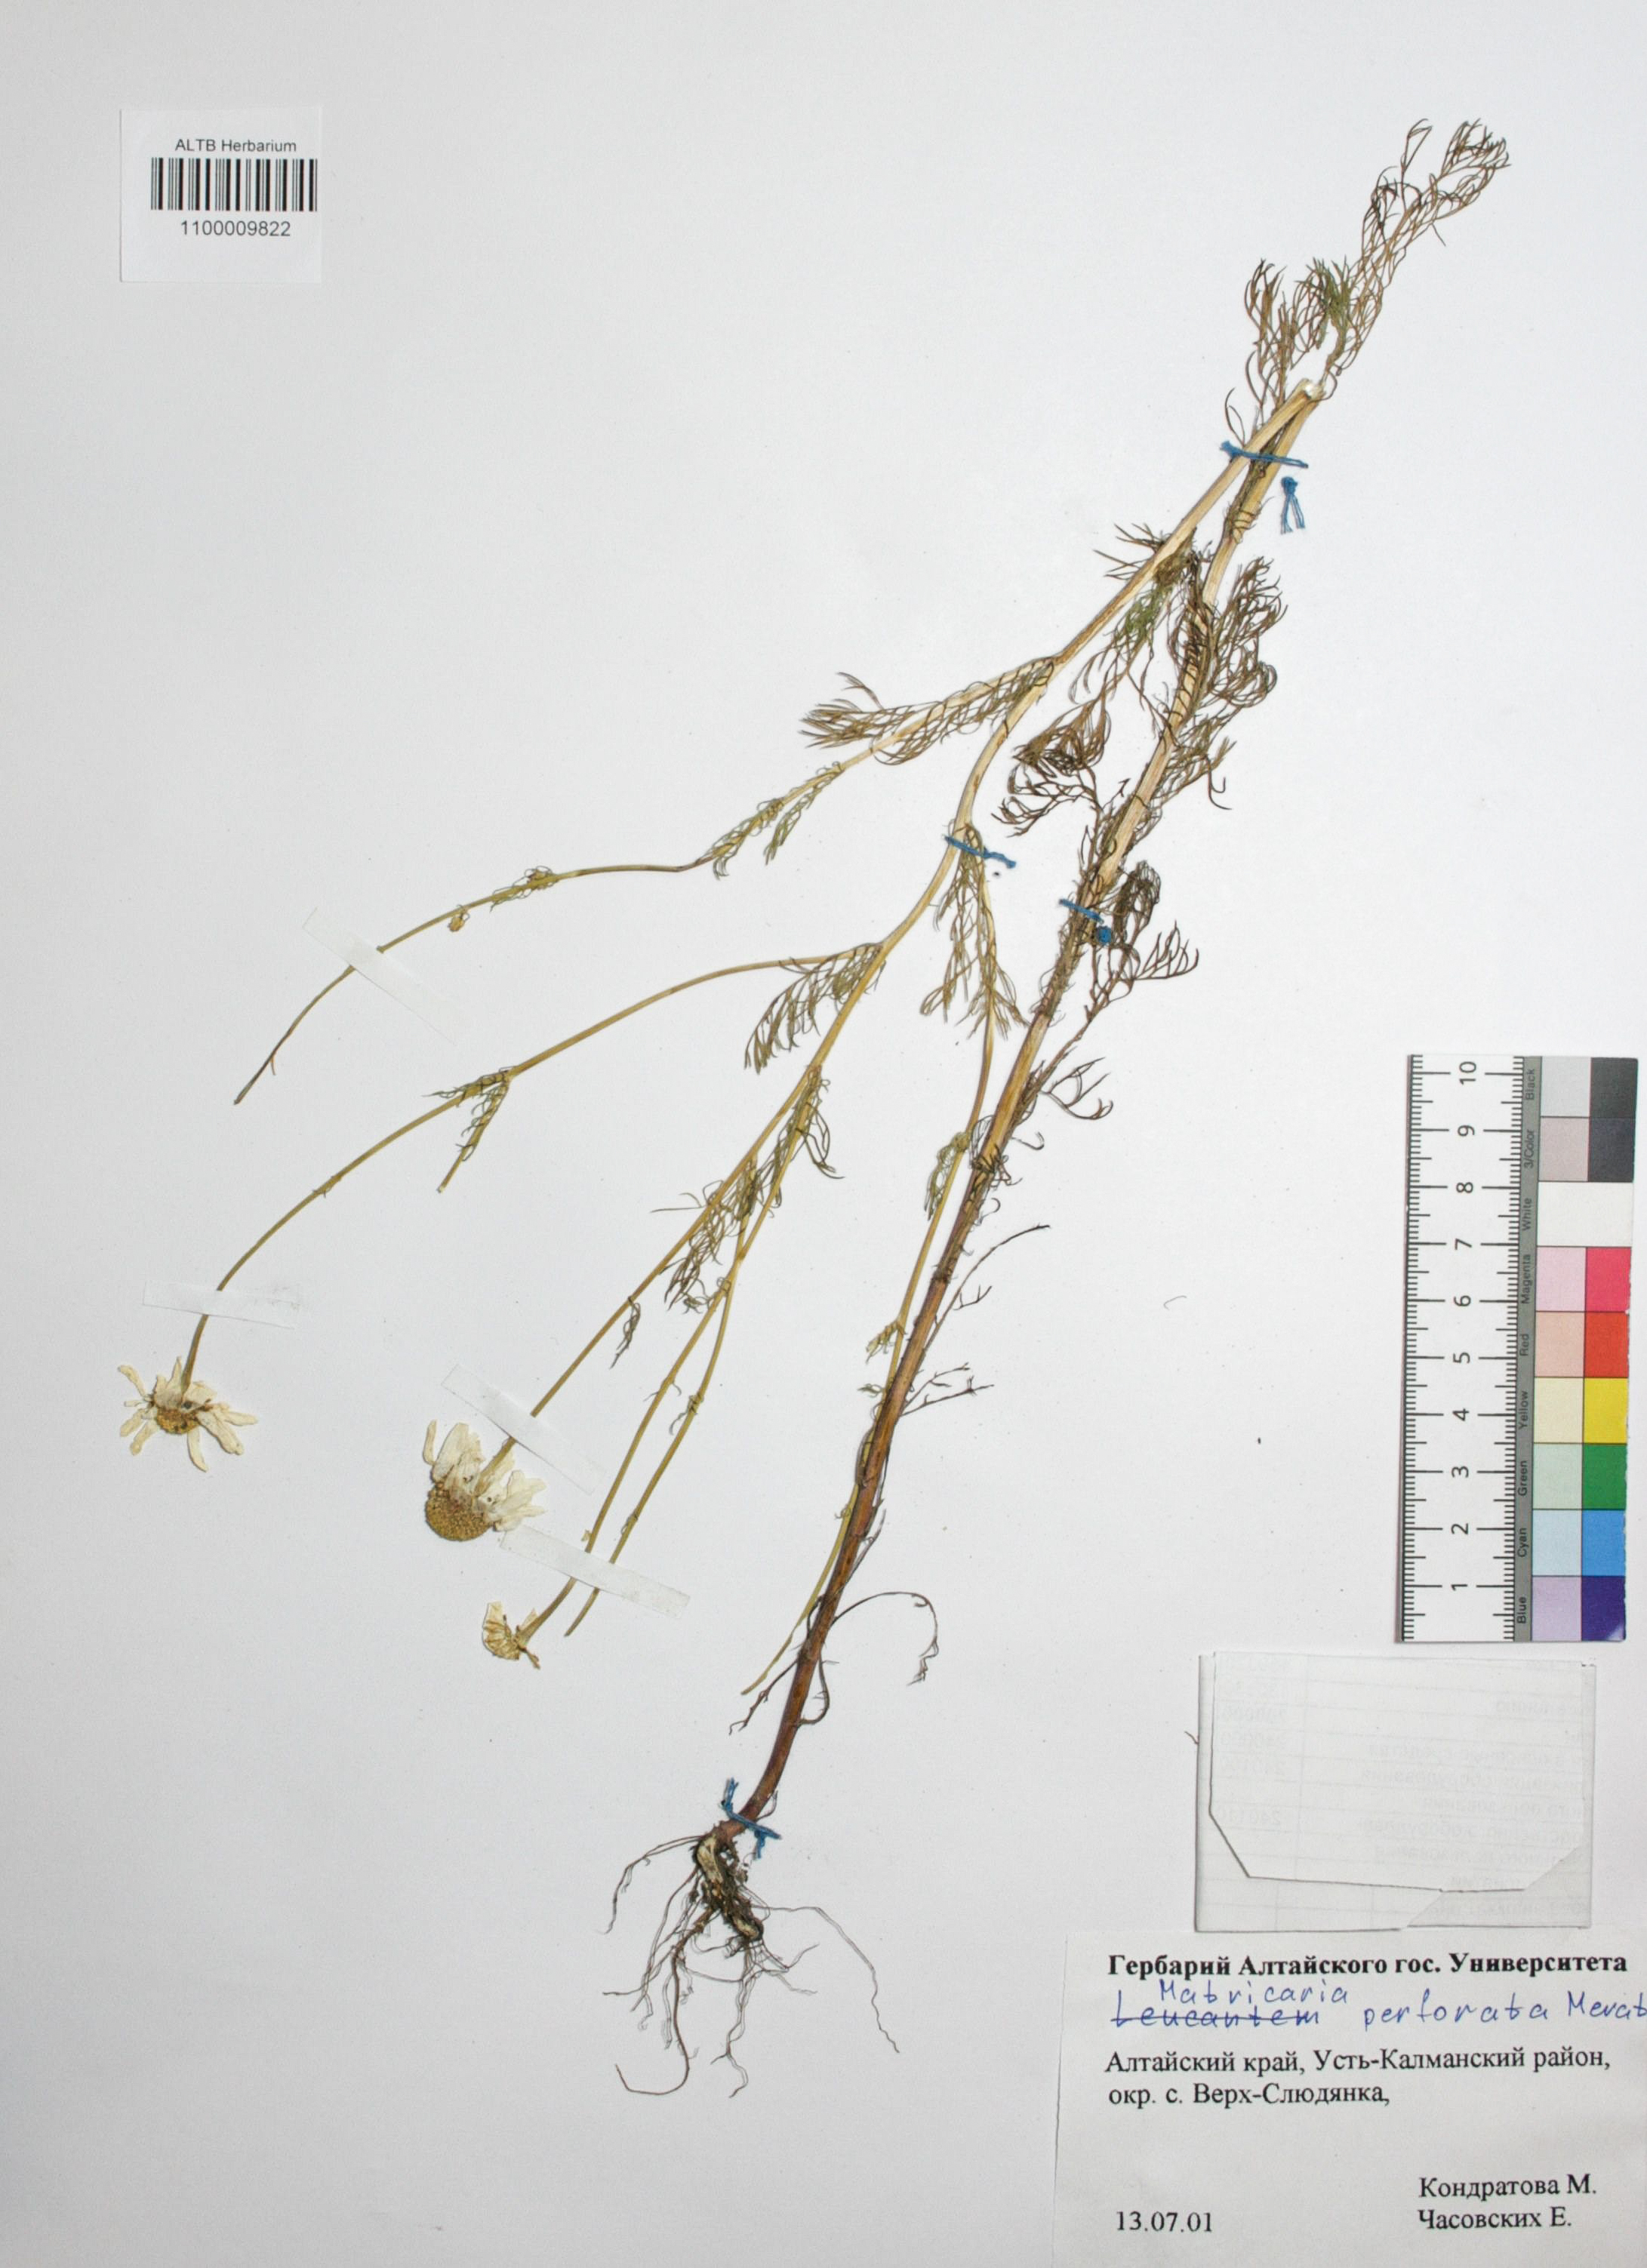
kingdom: Plantae
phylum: Tracheophyta
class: Magnoliopsida
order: Asterales
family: Asteraceae
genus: Tripleurospermum
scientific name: Tripleurospermum inodorum
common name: Scentless mayweed
